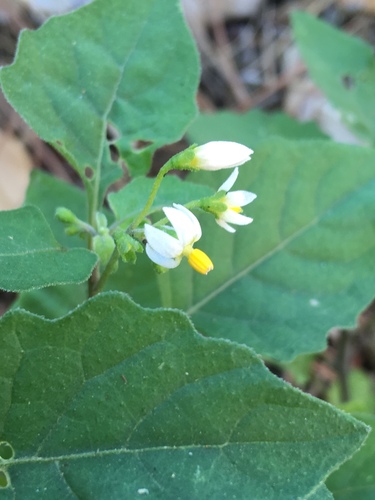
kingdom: Plantae
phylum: Tracheophyta
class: Magnoliopsida
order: Solanales
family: Solanaceae
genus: Solanum
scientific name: Solanum nigrum
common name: Black nightshade
